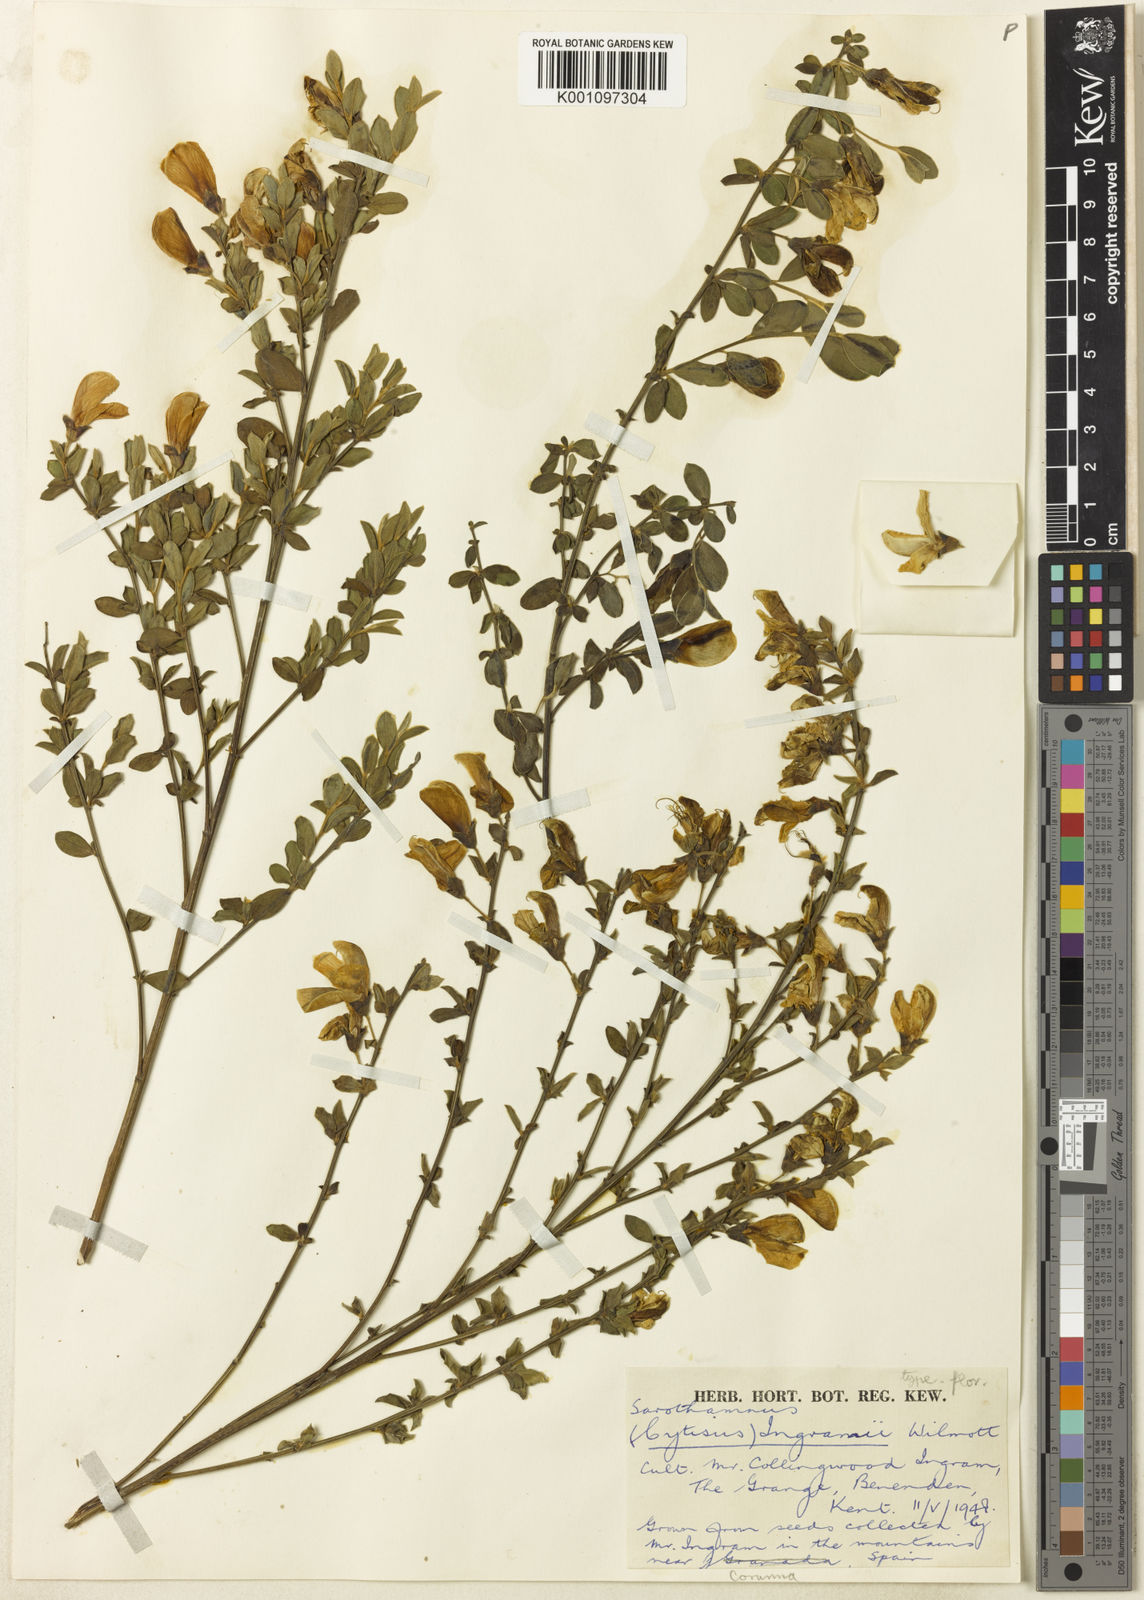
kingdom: Plantae
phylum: Tracheophyta
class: Magnoliopsida
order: Fabales
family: Fabaceae
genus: Cytisus
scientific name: Cytisus commutatus
